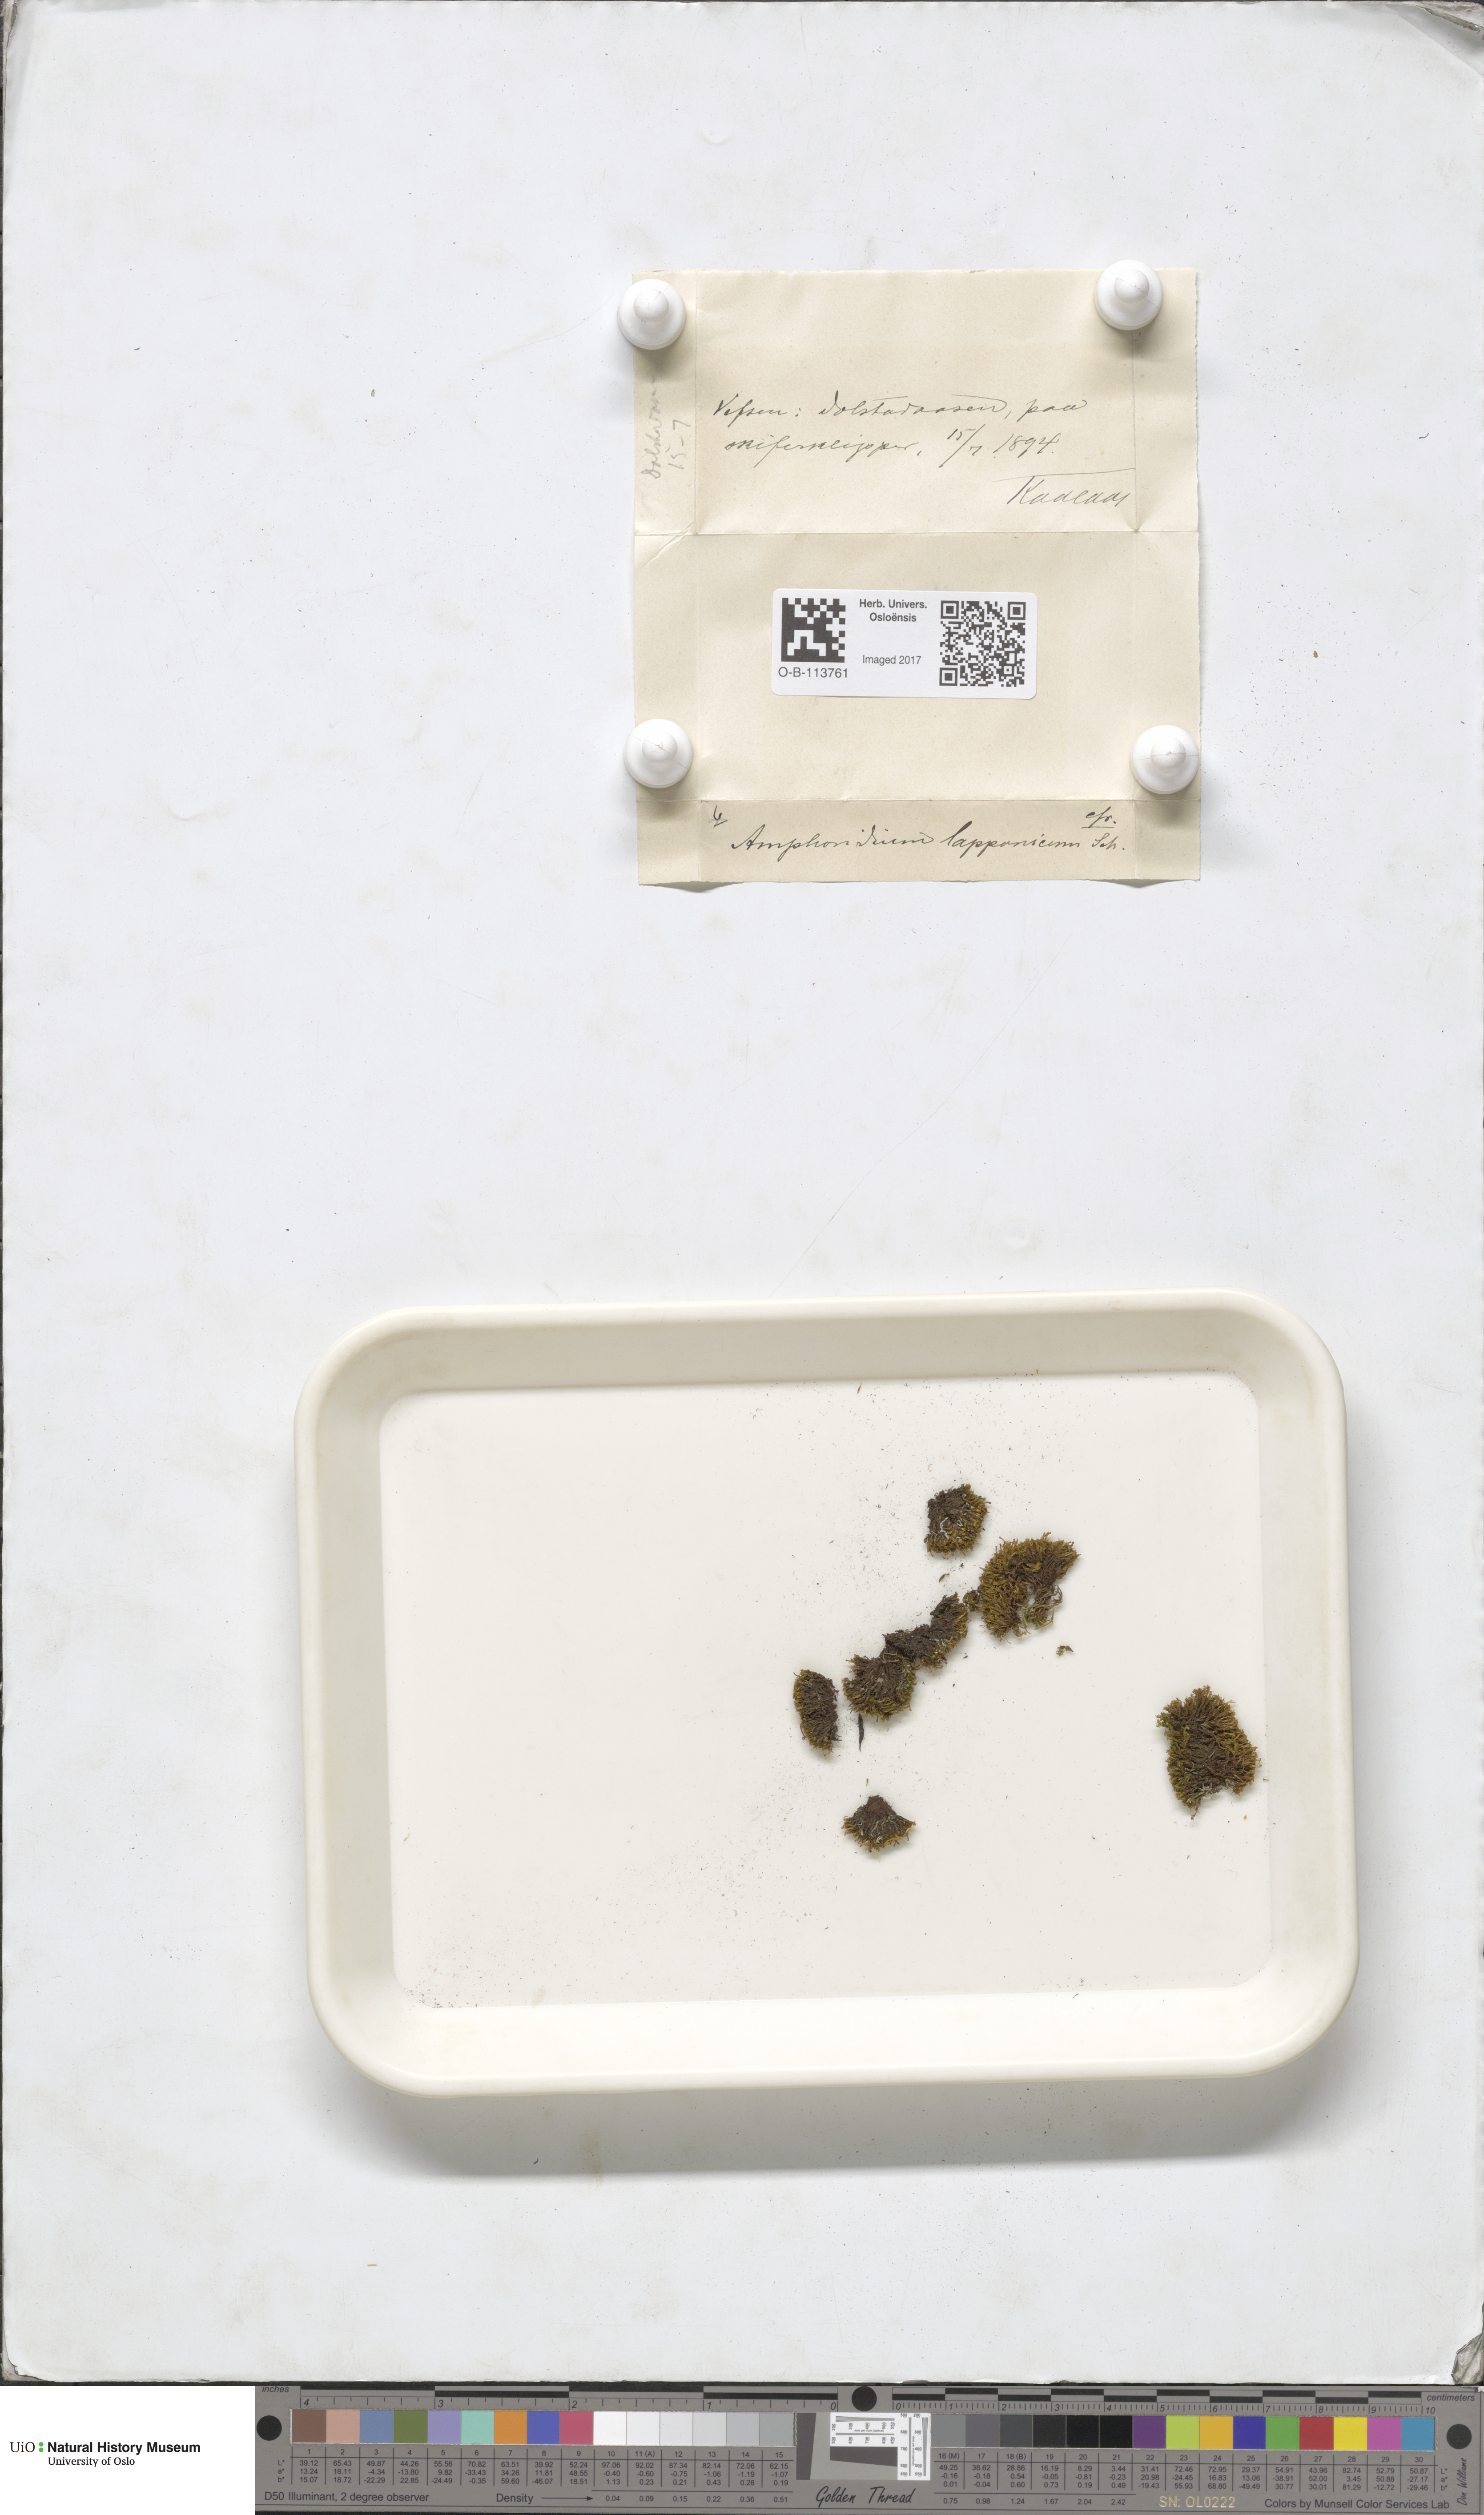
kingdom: Plantae
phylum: Bryophyta
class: Bryopsida
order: Dicranales
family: Amphidiaceae
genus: Amphidium
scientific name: Amphidium lapponicum
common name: Lapland yoke moss
